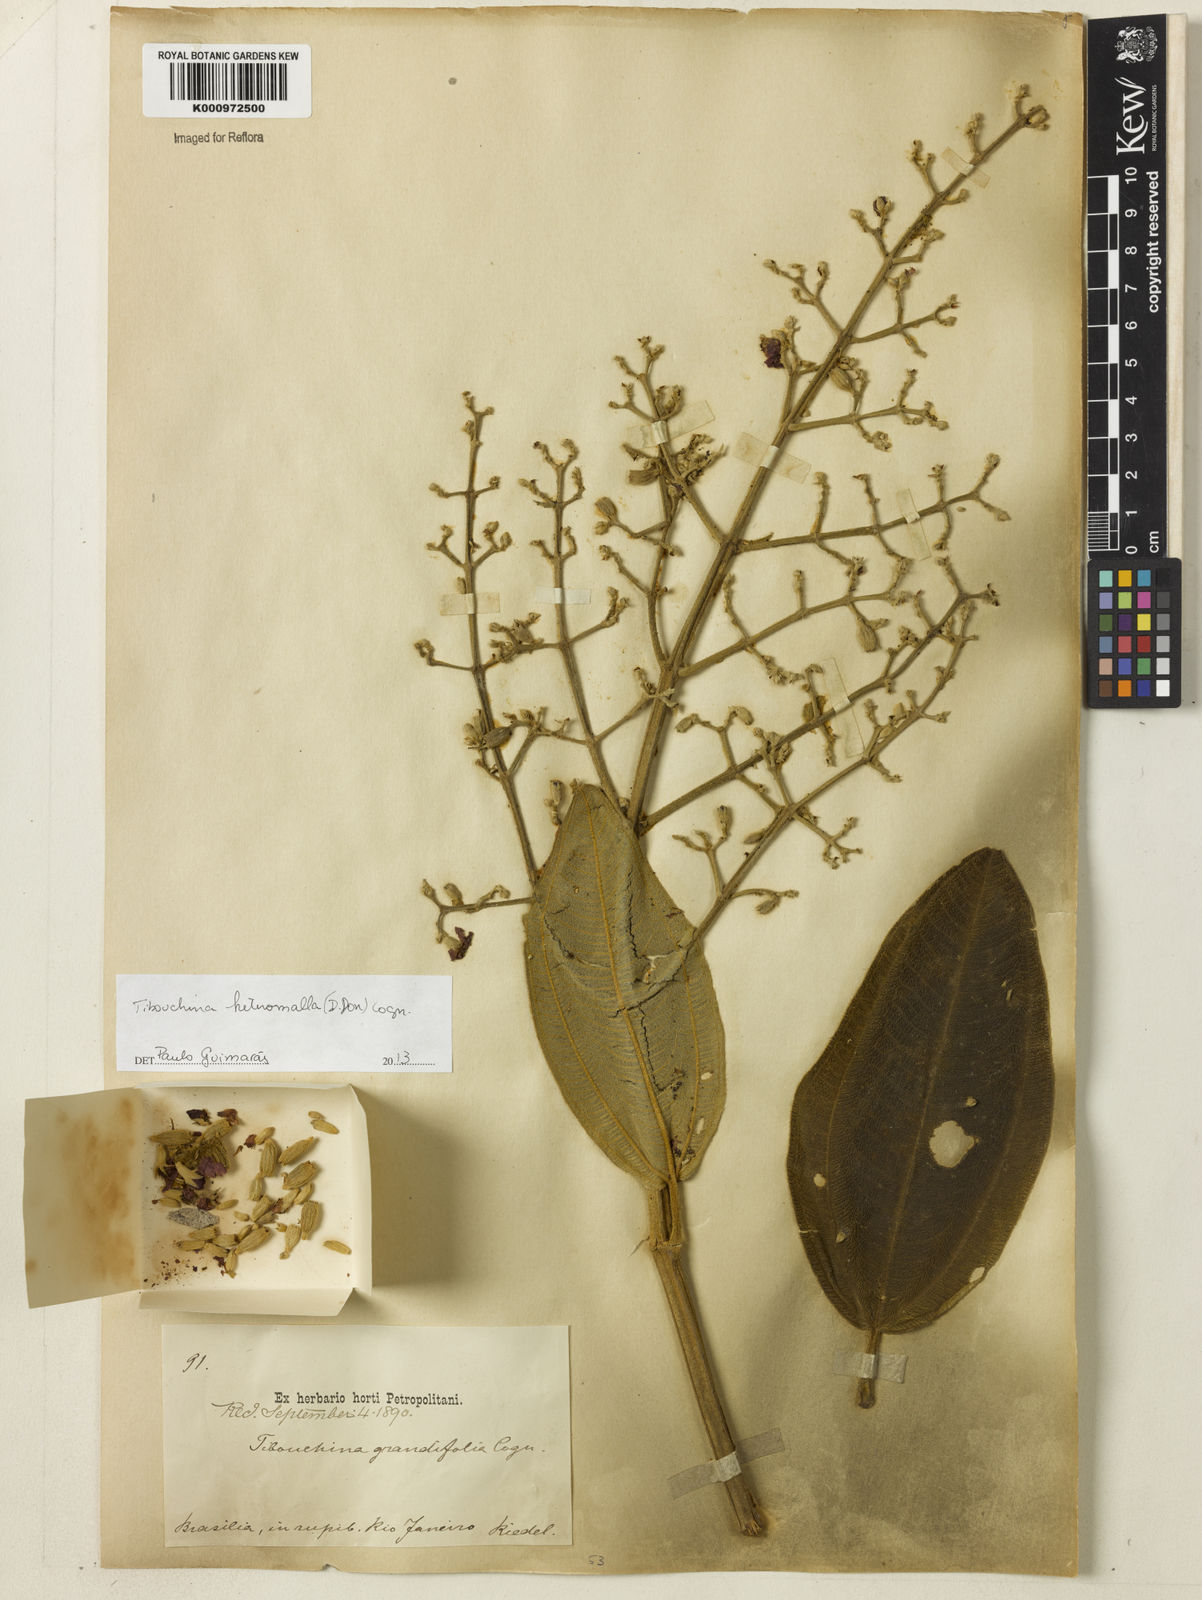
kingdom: Plantae
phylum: Tracheophyta
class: Magnoliopsida
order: Myrtales
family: Melastomataceae
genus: Pleroma
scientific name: Pleroma heteromallum
